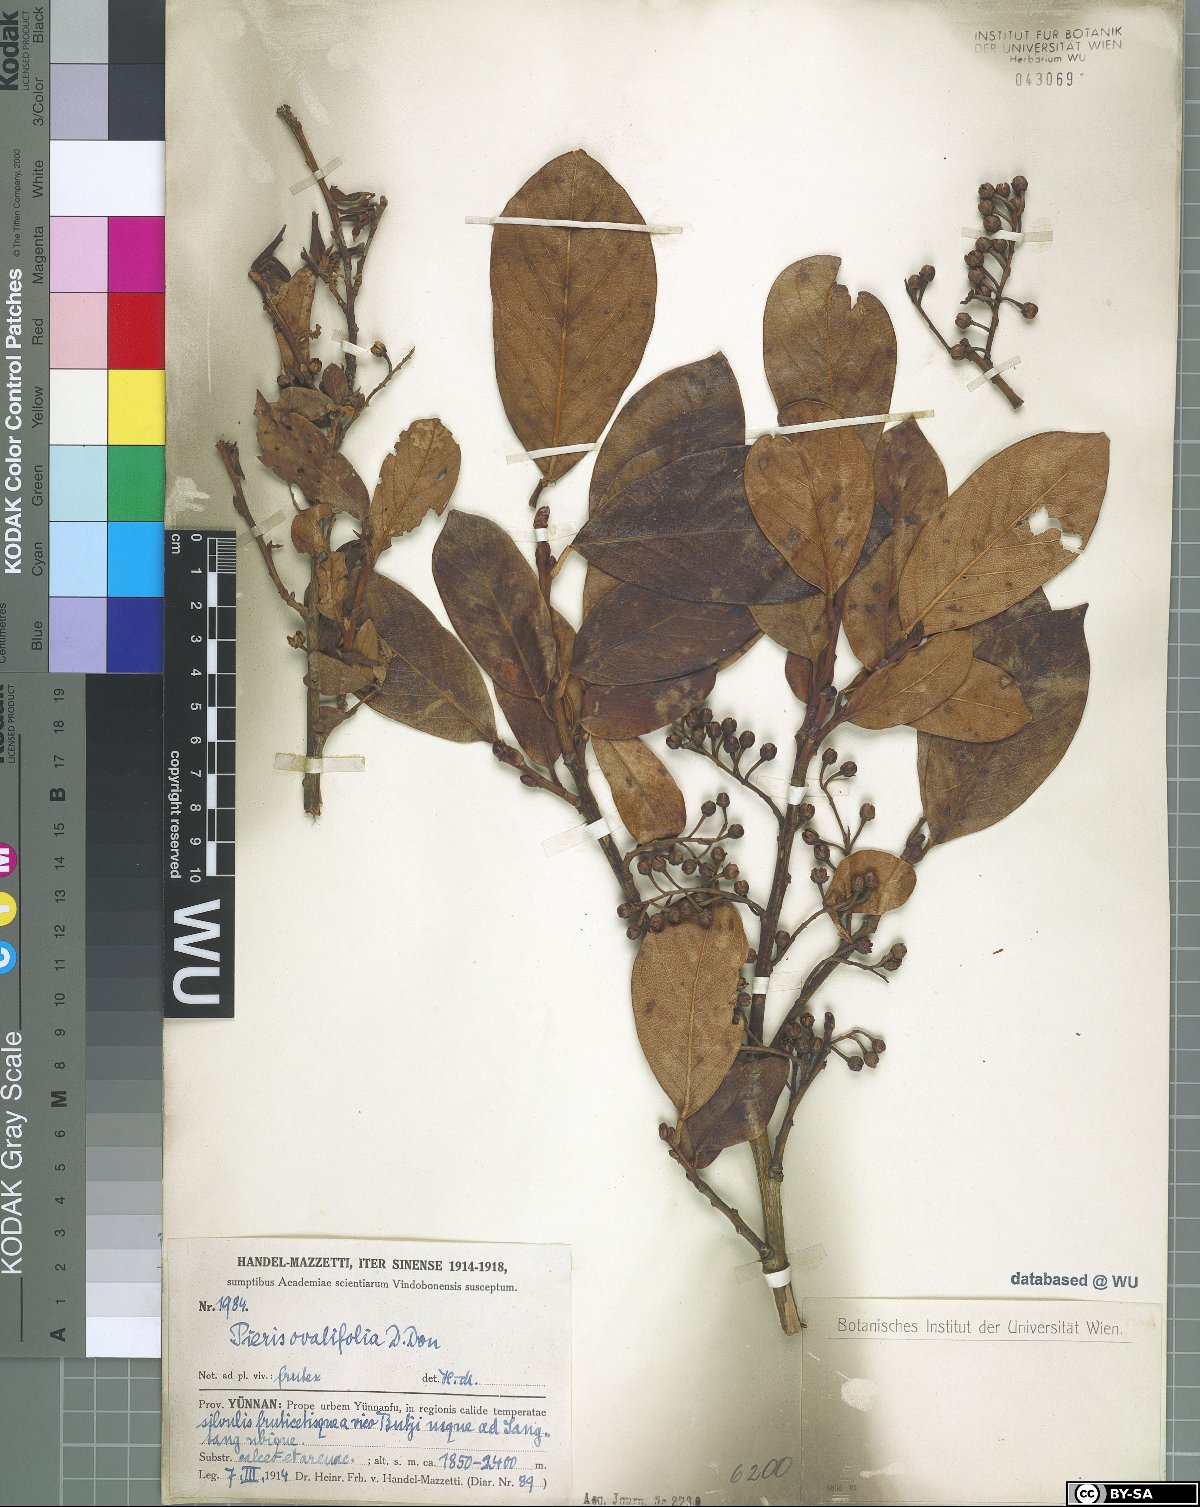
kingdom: Plantae
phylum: Tracheophyta
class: Magnoliopsida
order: Ericales
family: Ericaceae
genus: Lyonia
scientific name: Lyonia ovalifolia
